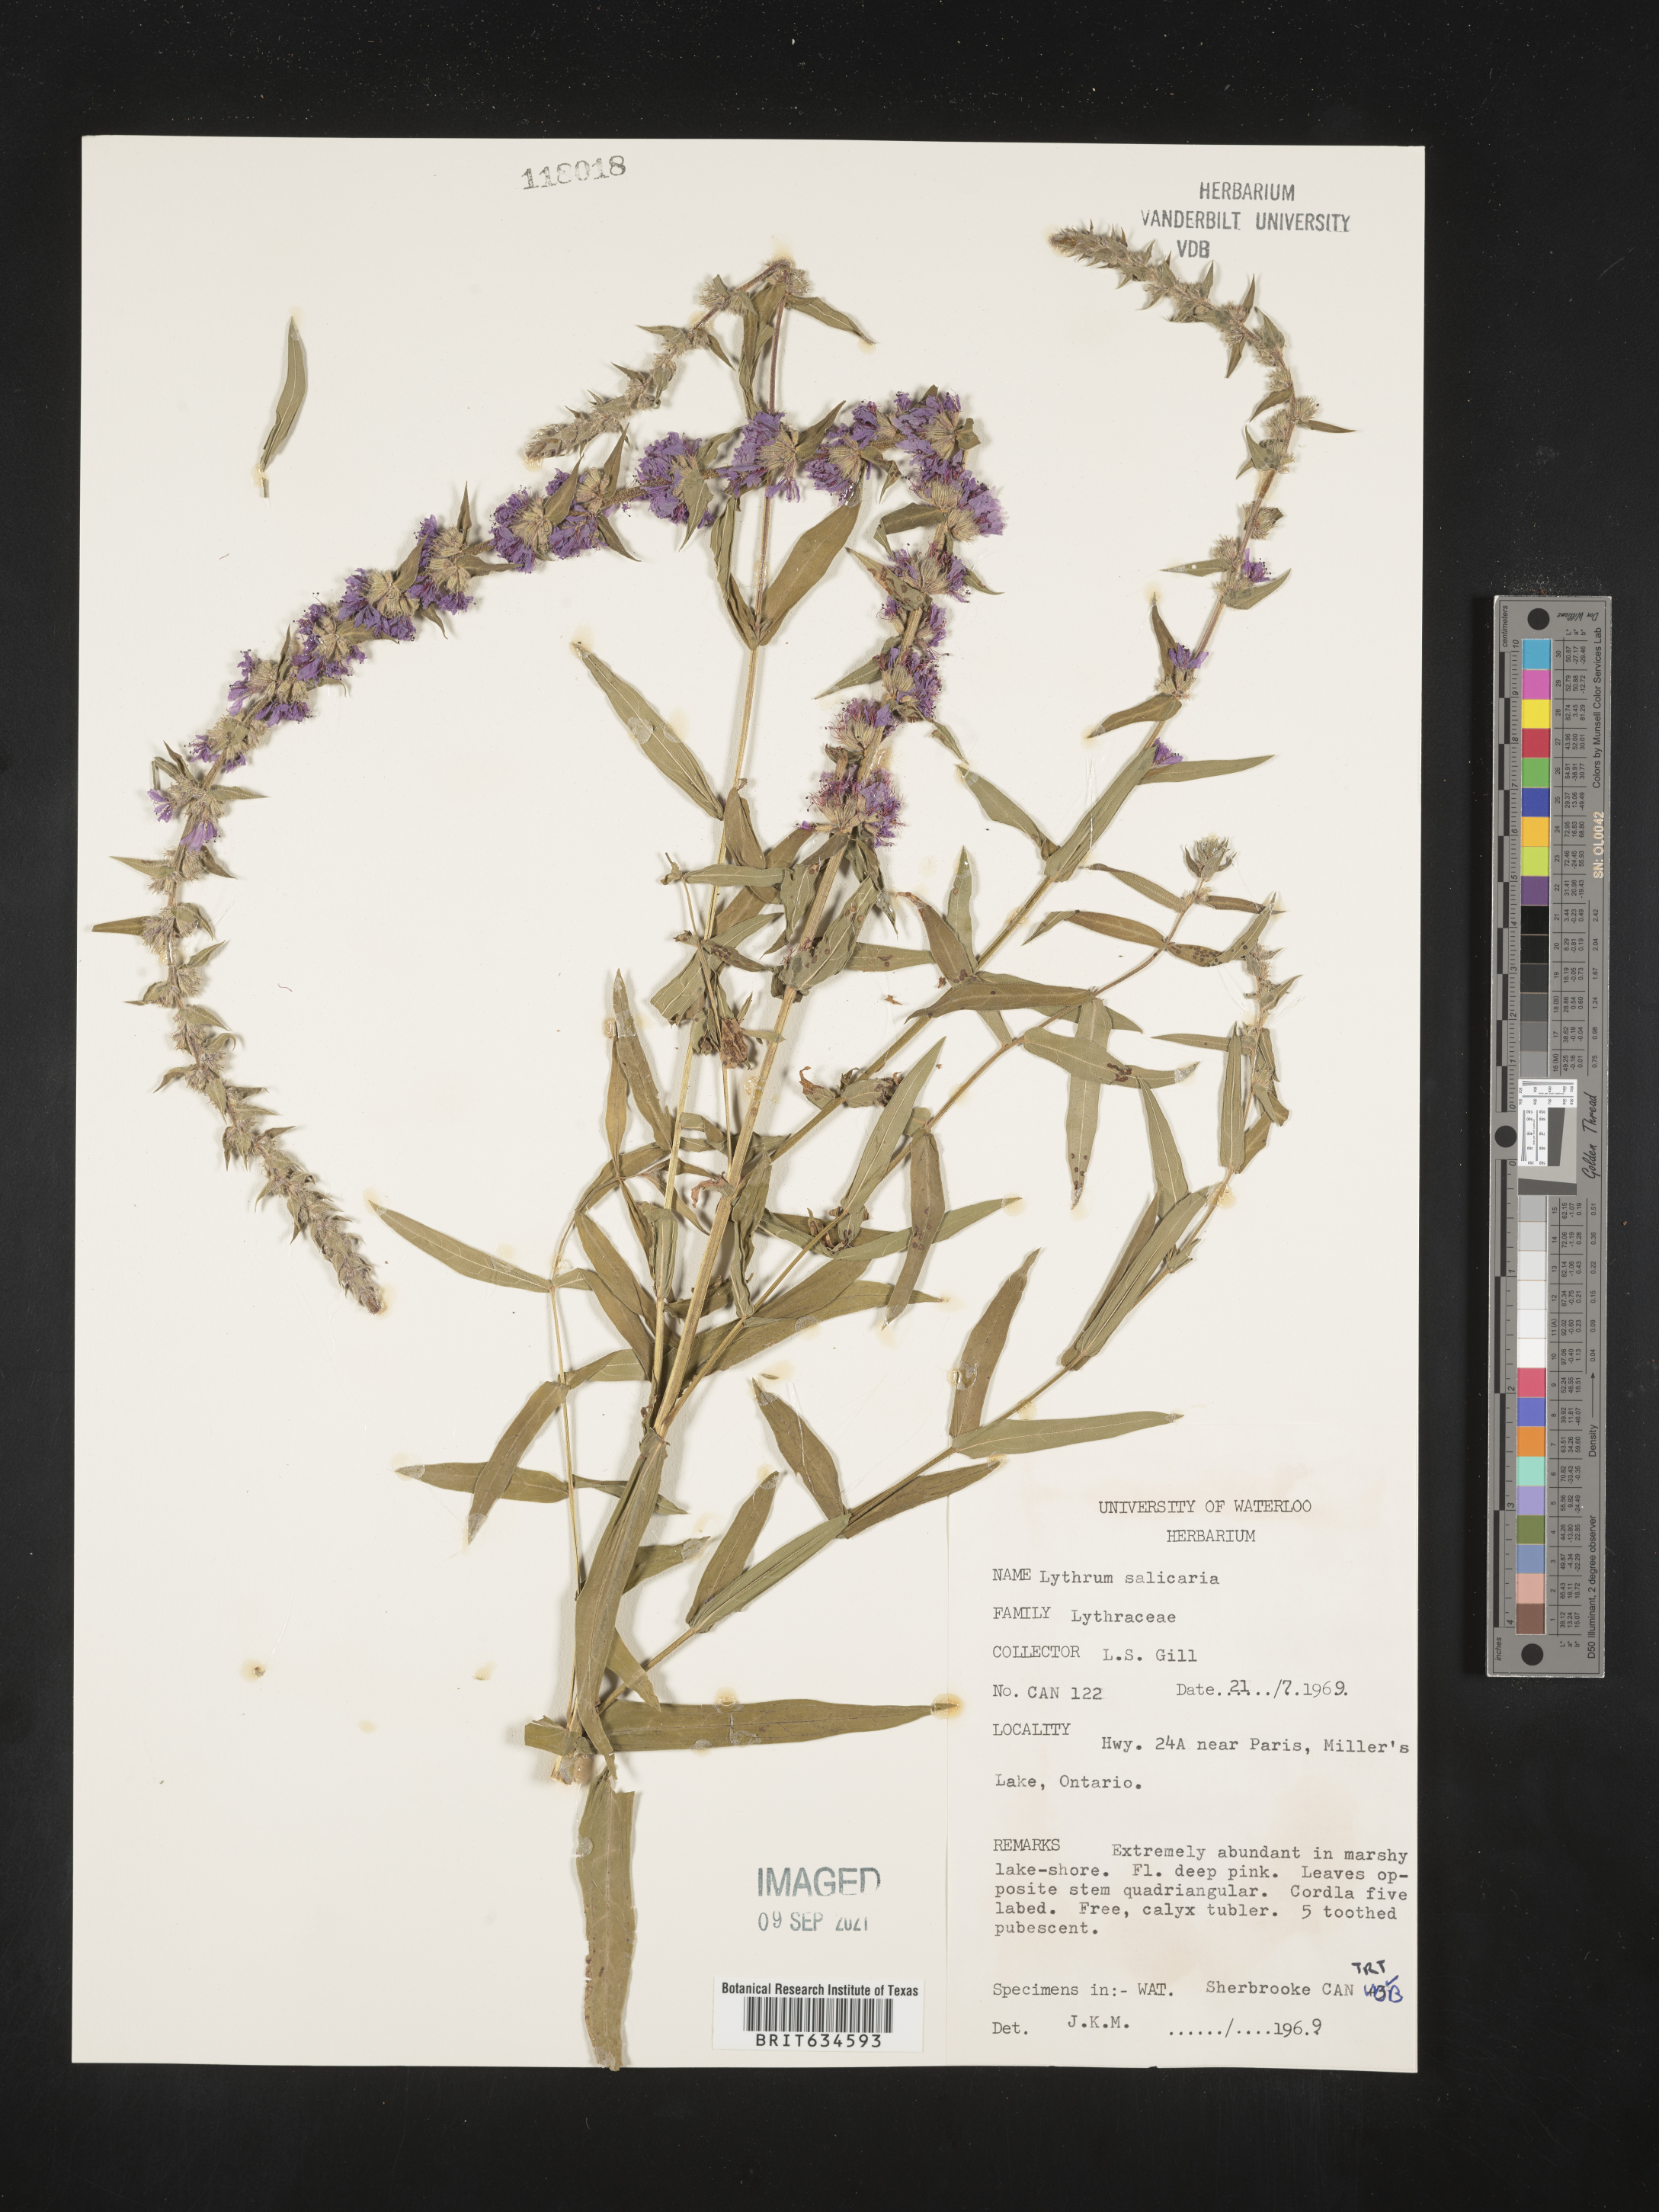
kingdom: Plantae
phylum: Tracheophyta
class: Magnoliopsida
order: Myrtales
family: Lythraceae
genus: Lythrum
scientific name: Lythrum
